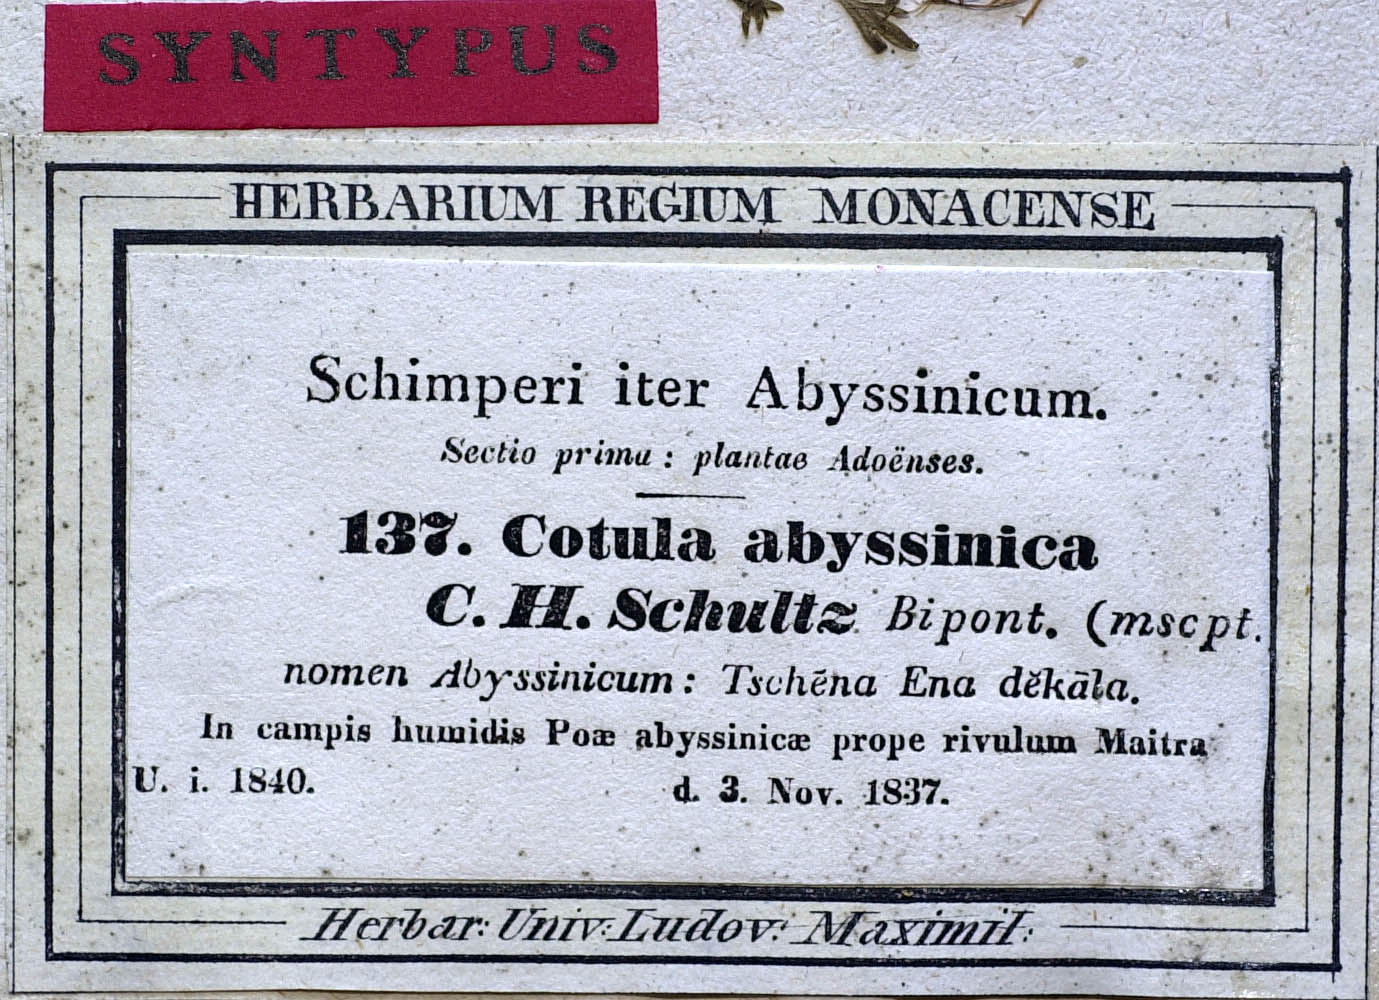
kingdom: Plantae
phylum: Tracheophyta
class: Magnoliopsida
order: Asterales
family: Asteraceae
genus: Cotula
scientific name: Cotula abyssinica
